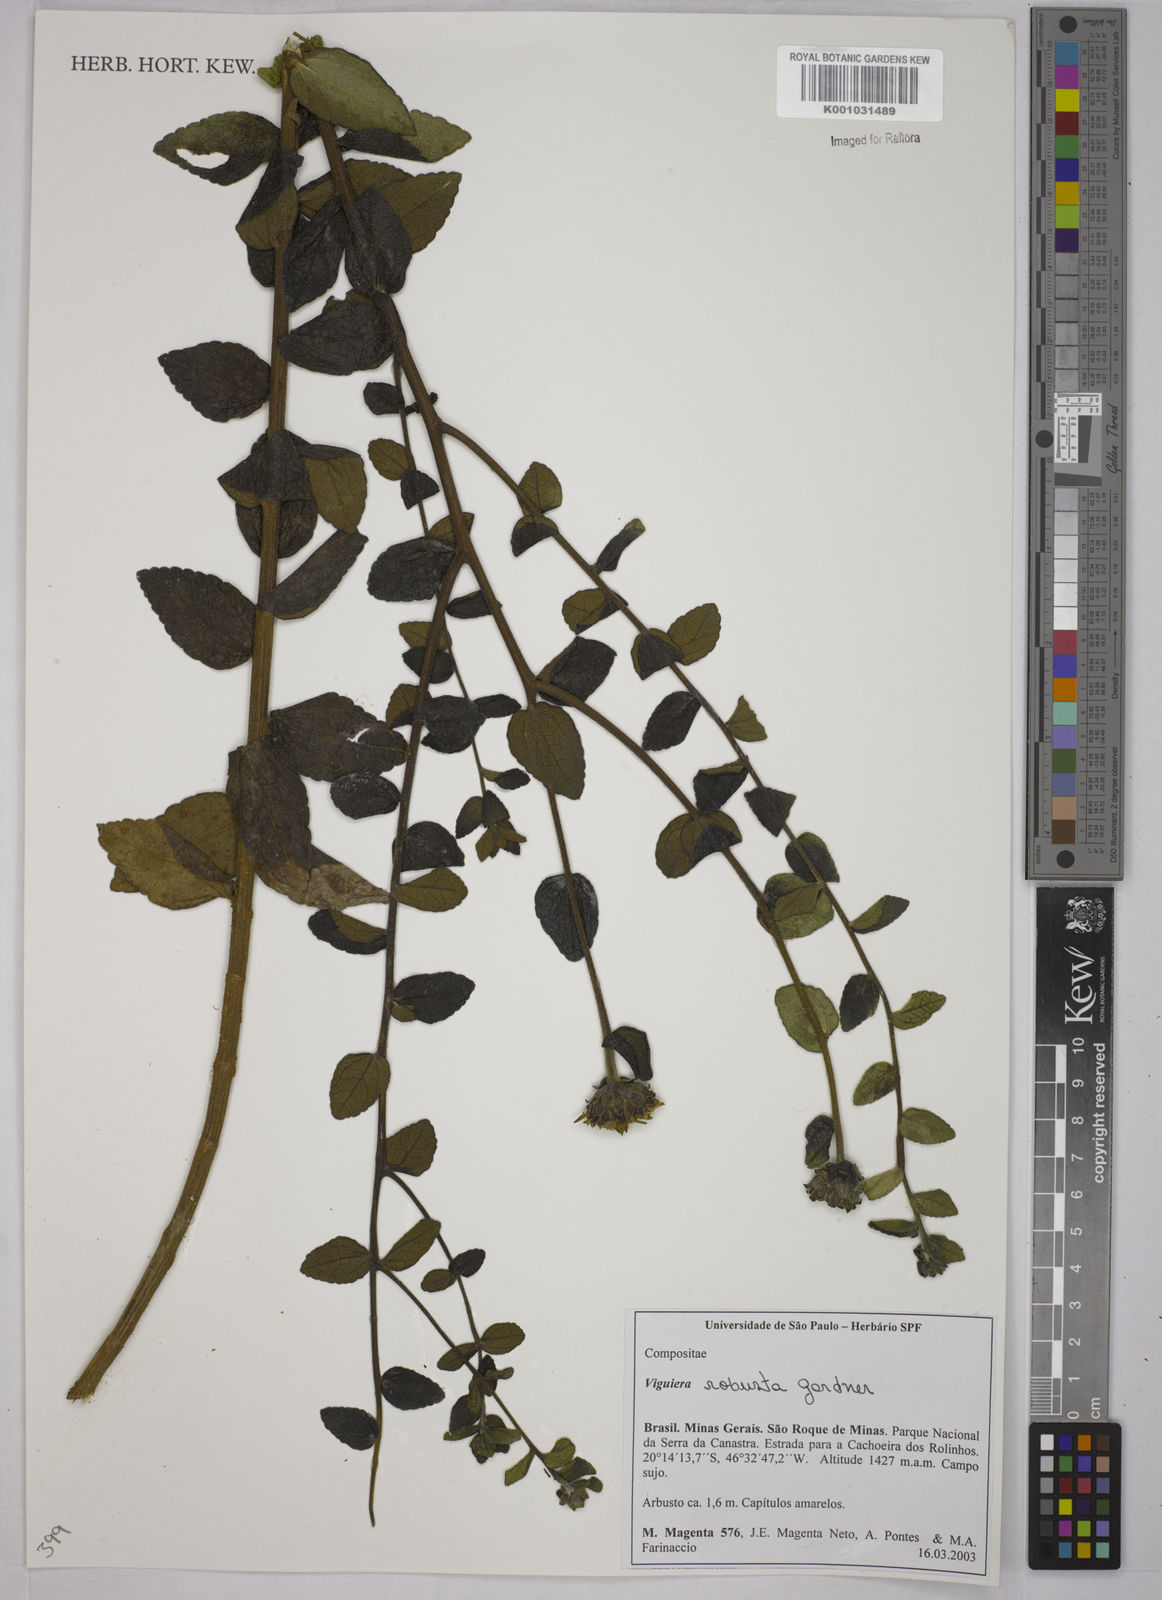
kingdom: Plantae
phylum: Tracheophyta
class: Magnoliopsida
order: Asterales
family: Asteraceae
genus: Aldama
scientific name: Aldama robusta
